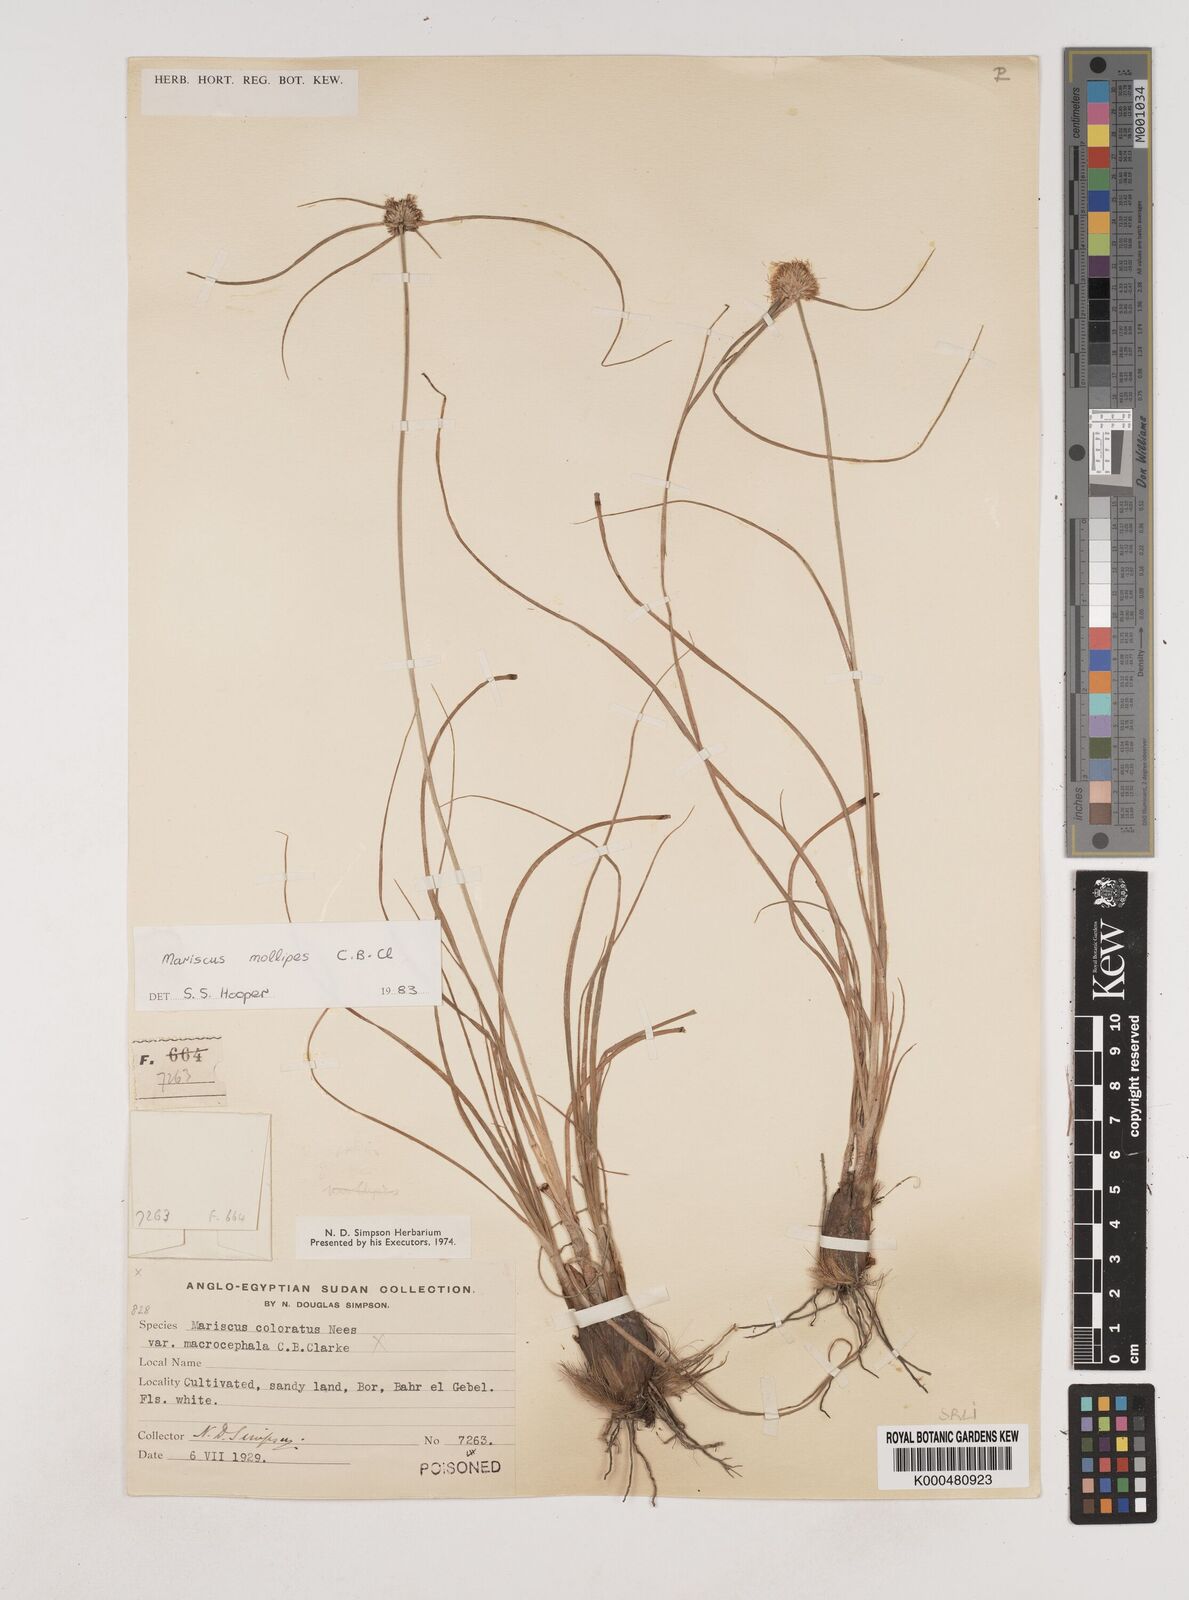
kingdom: Plantae
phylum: Tracheophyta
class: Liliopsida
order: Poales
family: Cyperaceae
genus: Cyperus
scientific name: Cyperus mollipes
